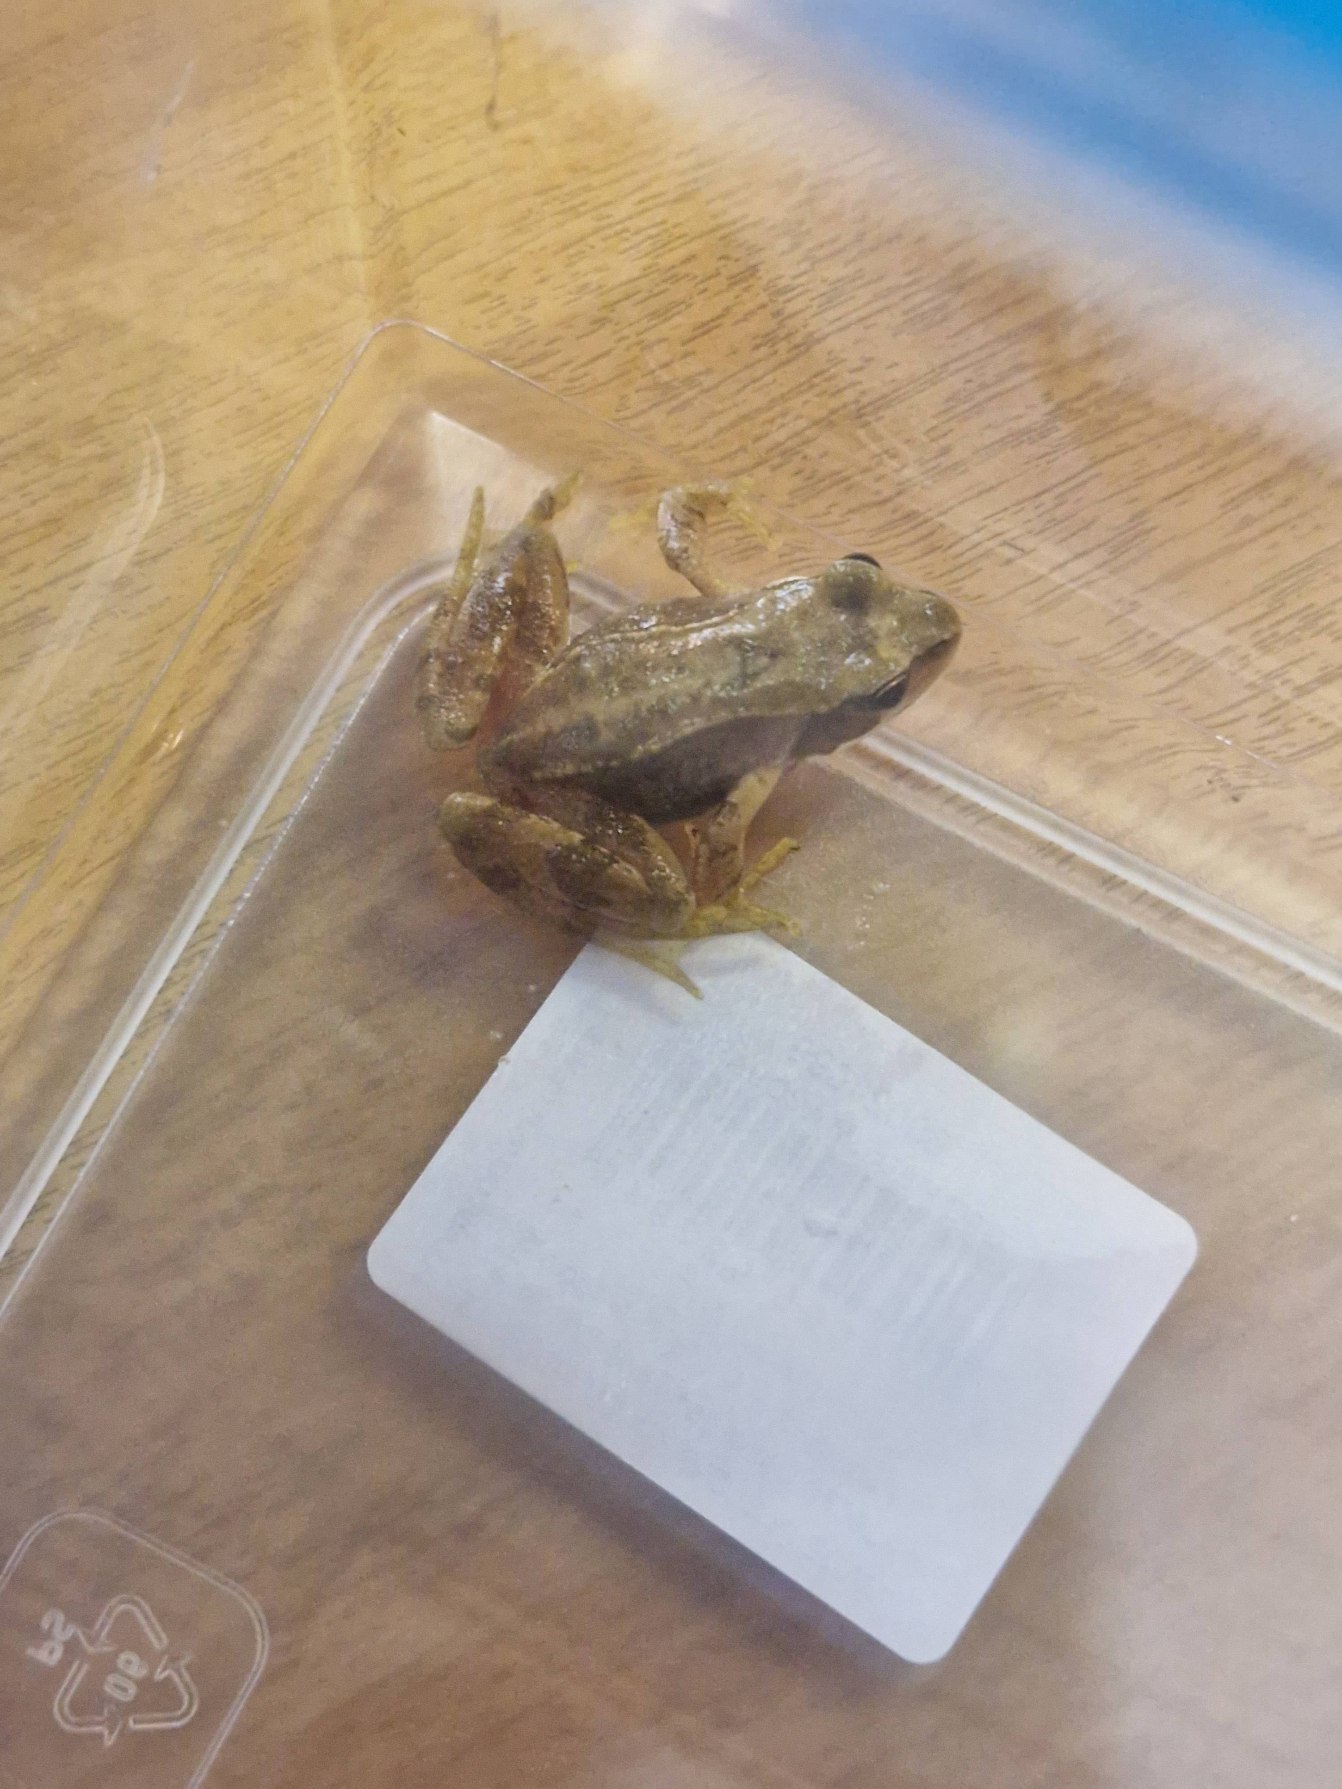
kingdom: Animalia
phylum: Chordata
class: Amphibia
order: Anura
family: Ranidae
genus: Rana
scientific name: Rana temporaria
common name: Butsnudet frø
